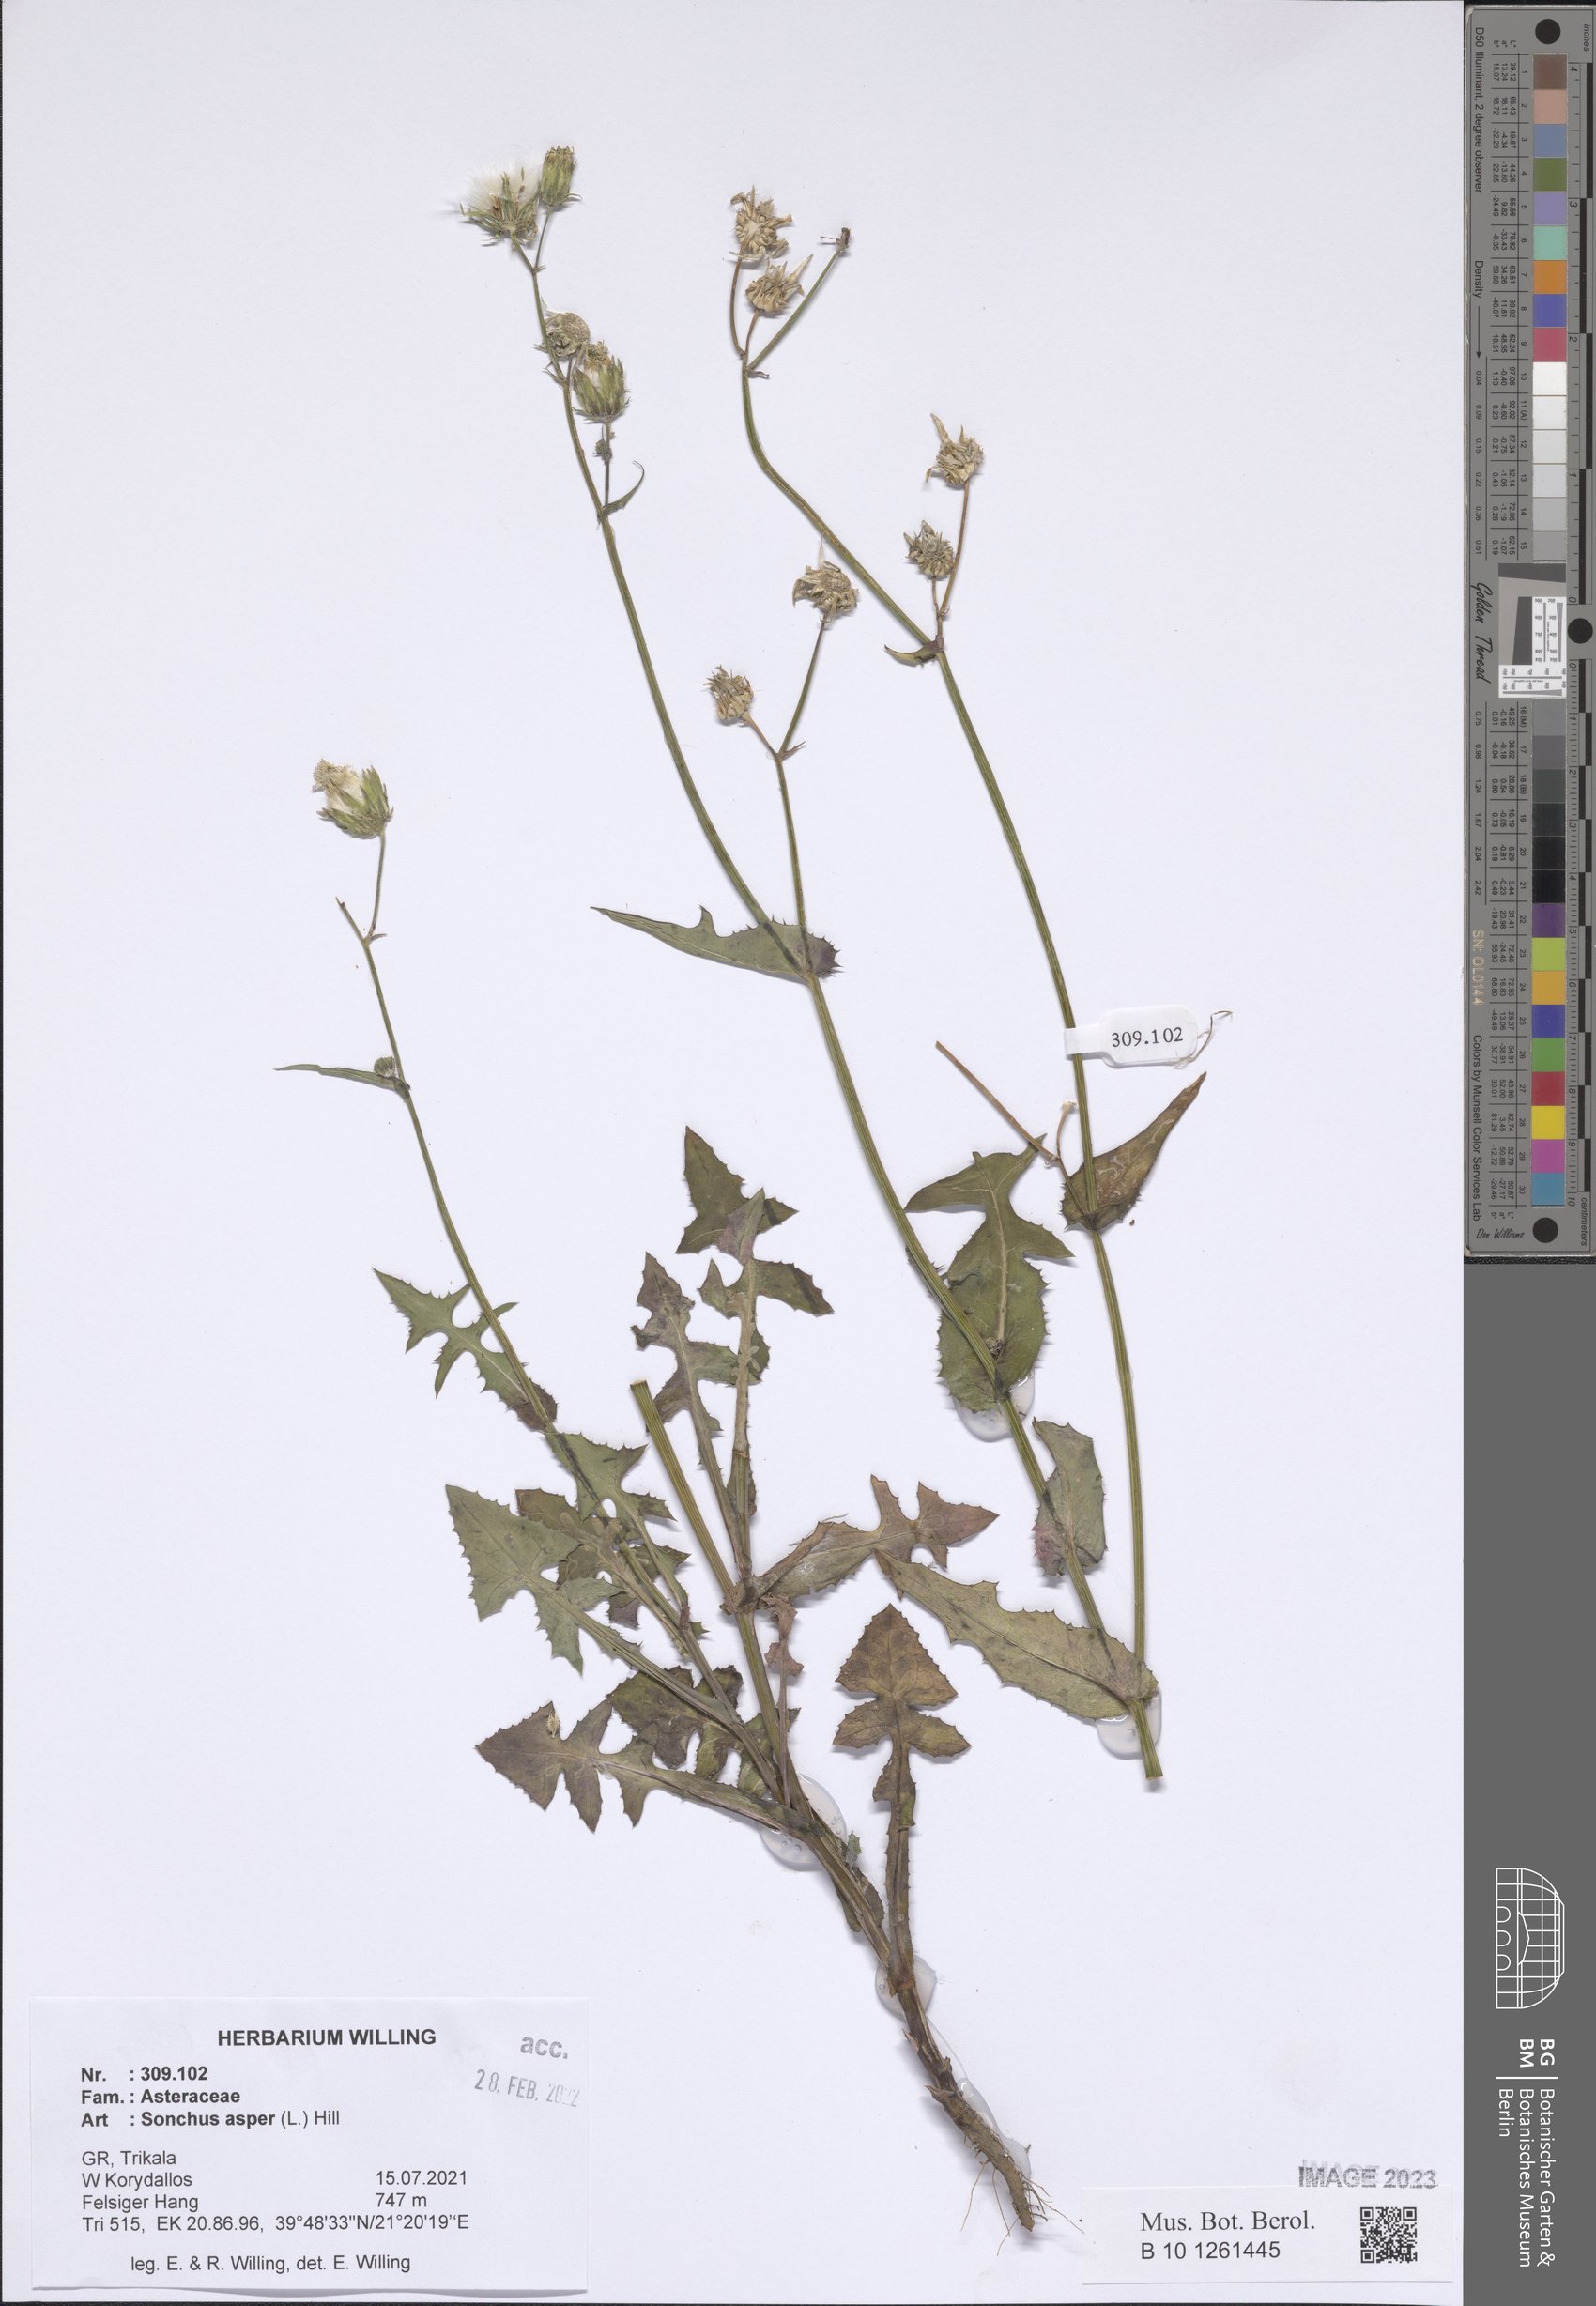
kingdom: Plantae
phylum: Tracheophyta
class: Magnoliopsida
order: Asterales
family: Asteraceae
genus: Sonchus
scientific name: Sonchus asper
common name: Prickly sow-thistle
